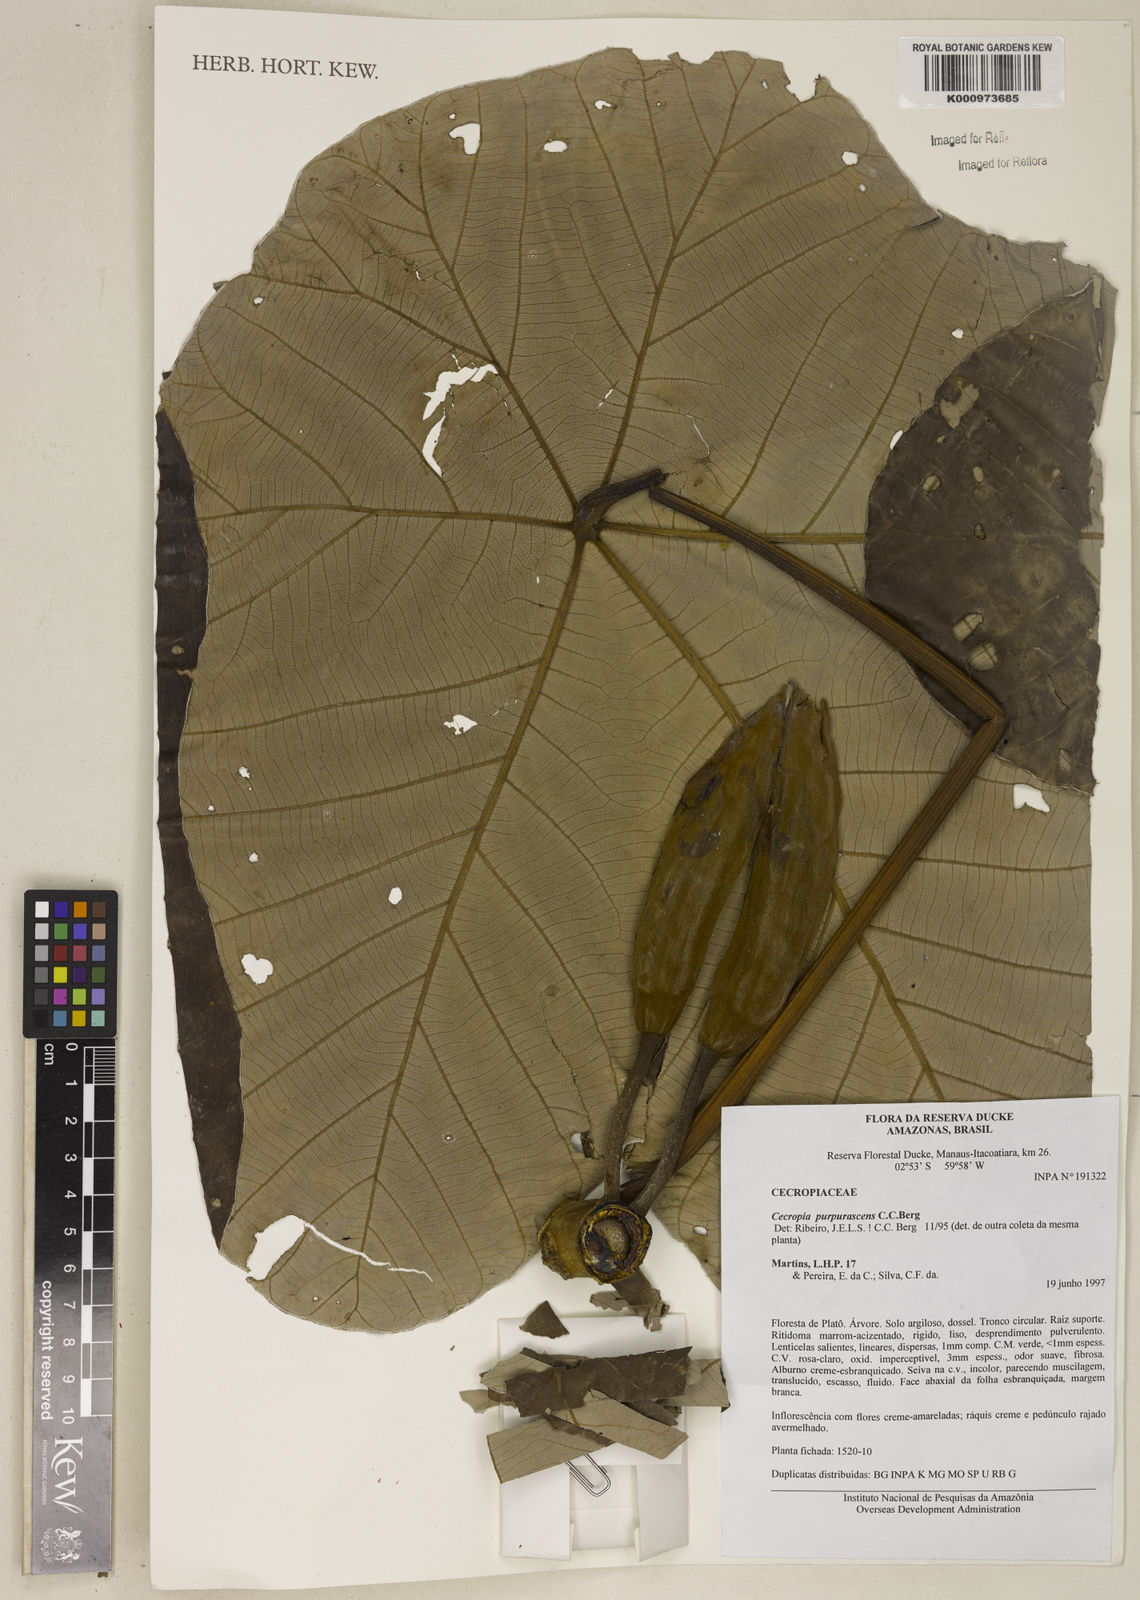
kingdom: Plantae
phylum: Tracheophyta
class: Magnoliopsida
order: Rosales
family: Urticaceae
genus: Cecropia
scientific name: Cecropia purpurascens
